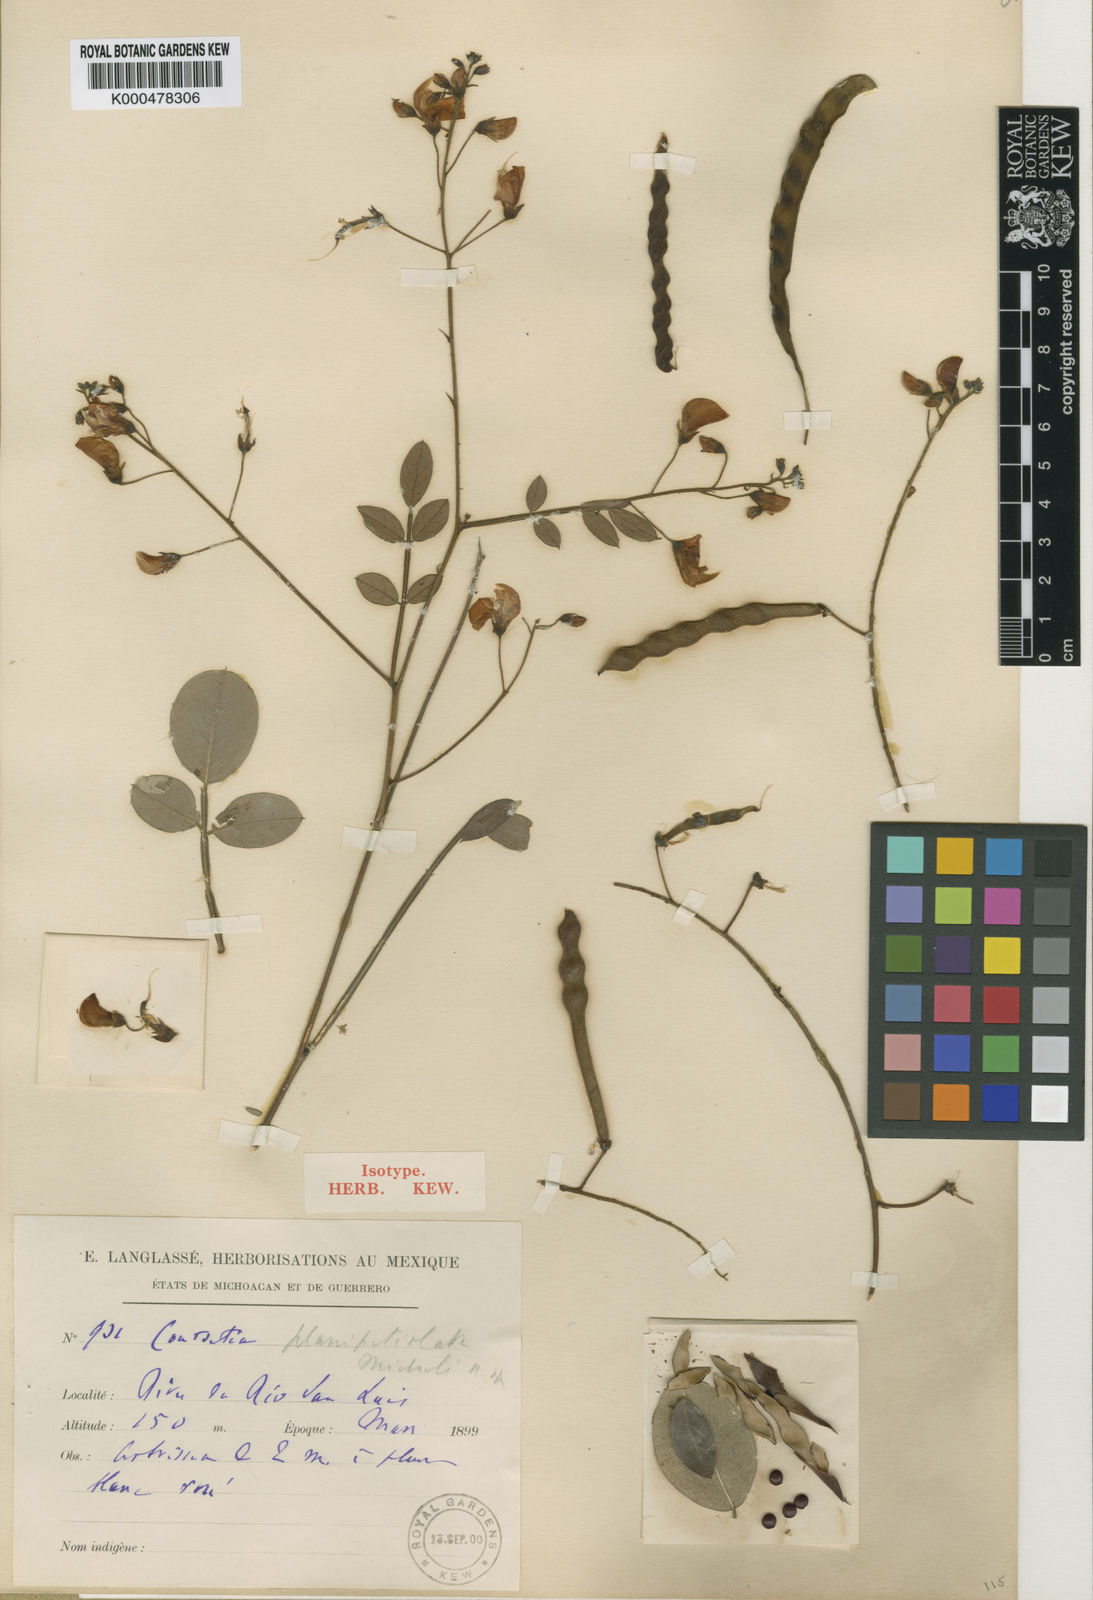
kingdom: Plantae
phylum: Tracheophyta
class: Magnoliopsida
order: Fabales
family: Fabaceae
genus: Coursetia
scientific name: Coursetia planipetiolata
